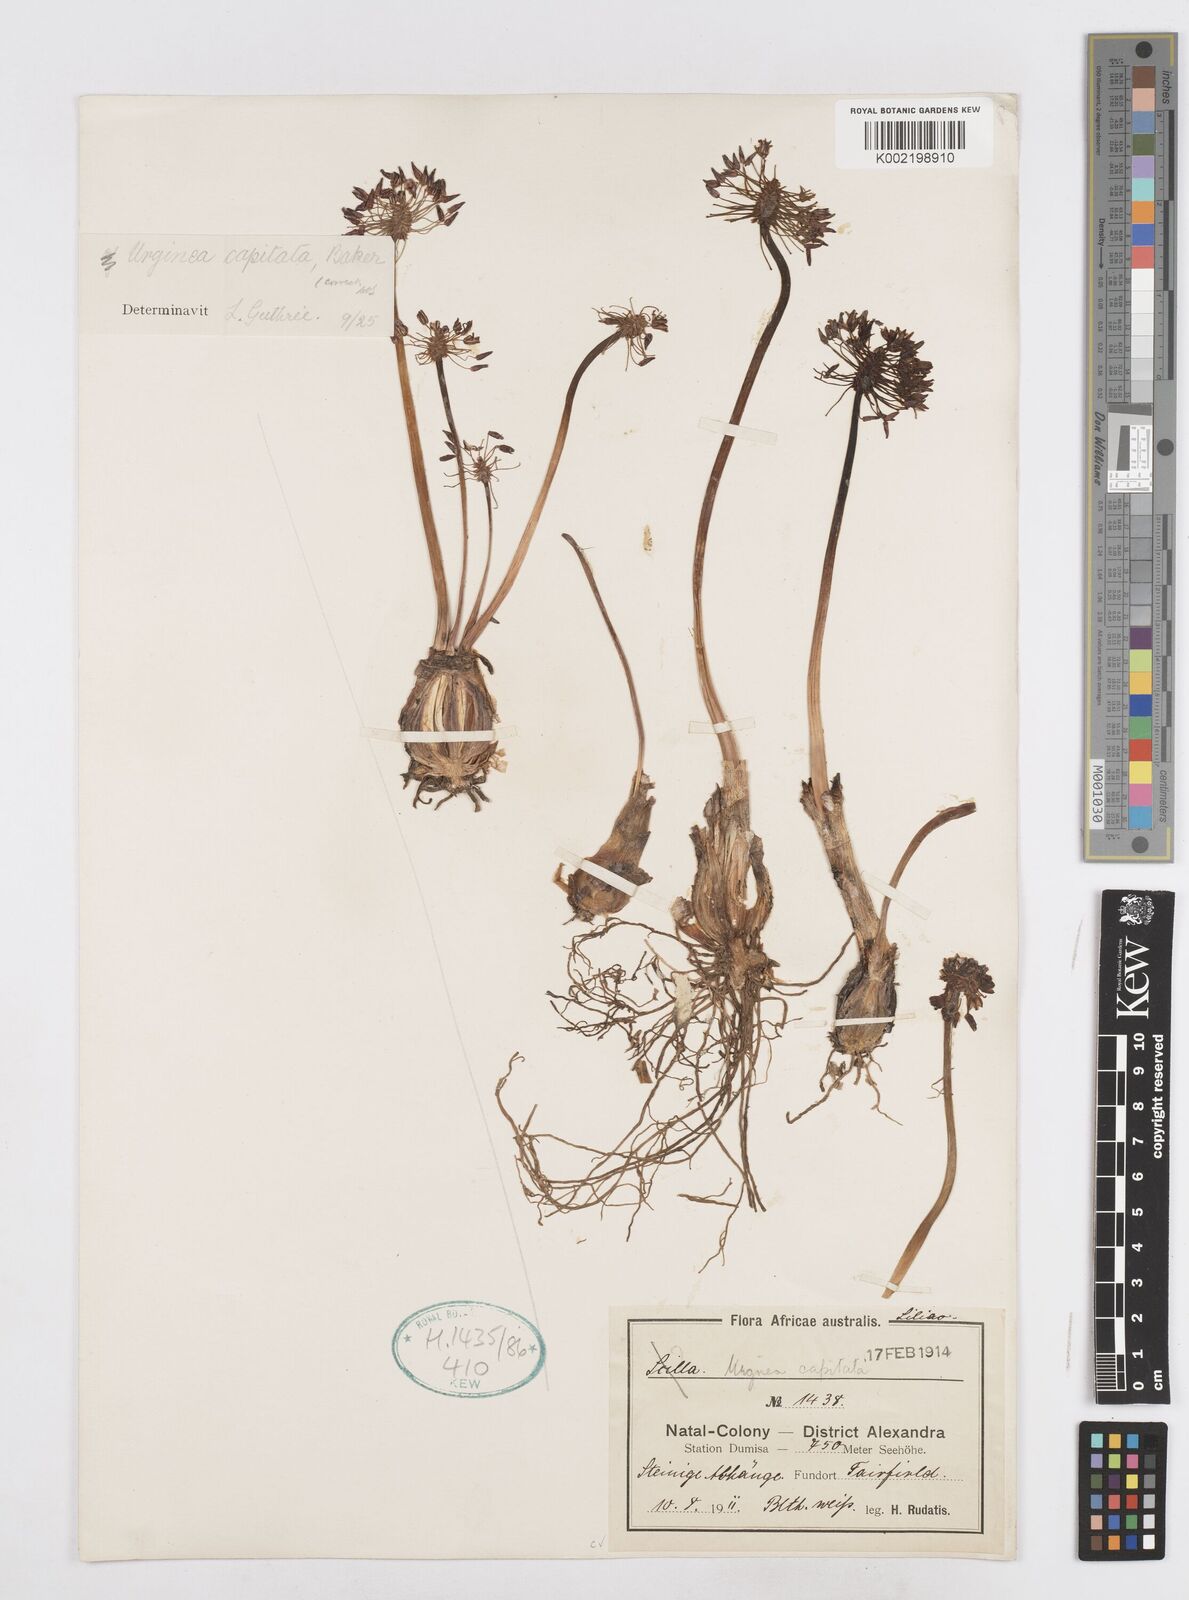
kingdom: Plantae
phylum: Tracheophyta
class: Liliopsida
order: Asparagales
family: Asparagaceae
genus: Drimia
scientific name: Drimia sphaerocephala
